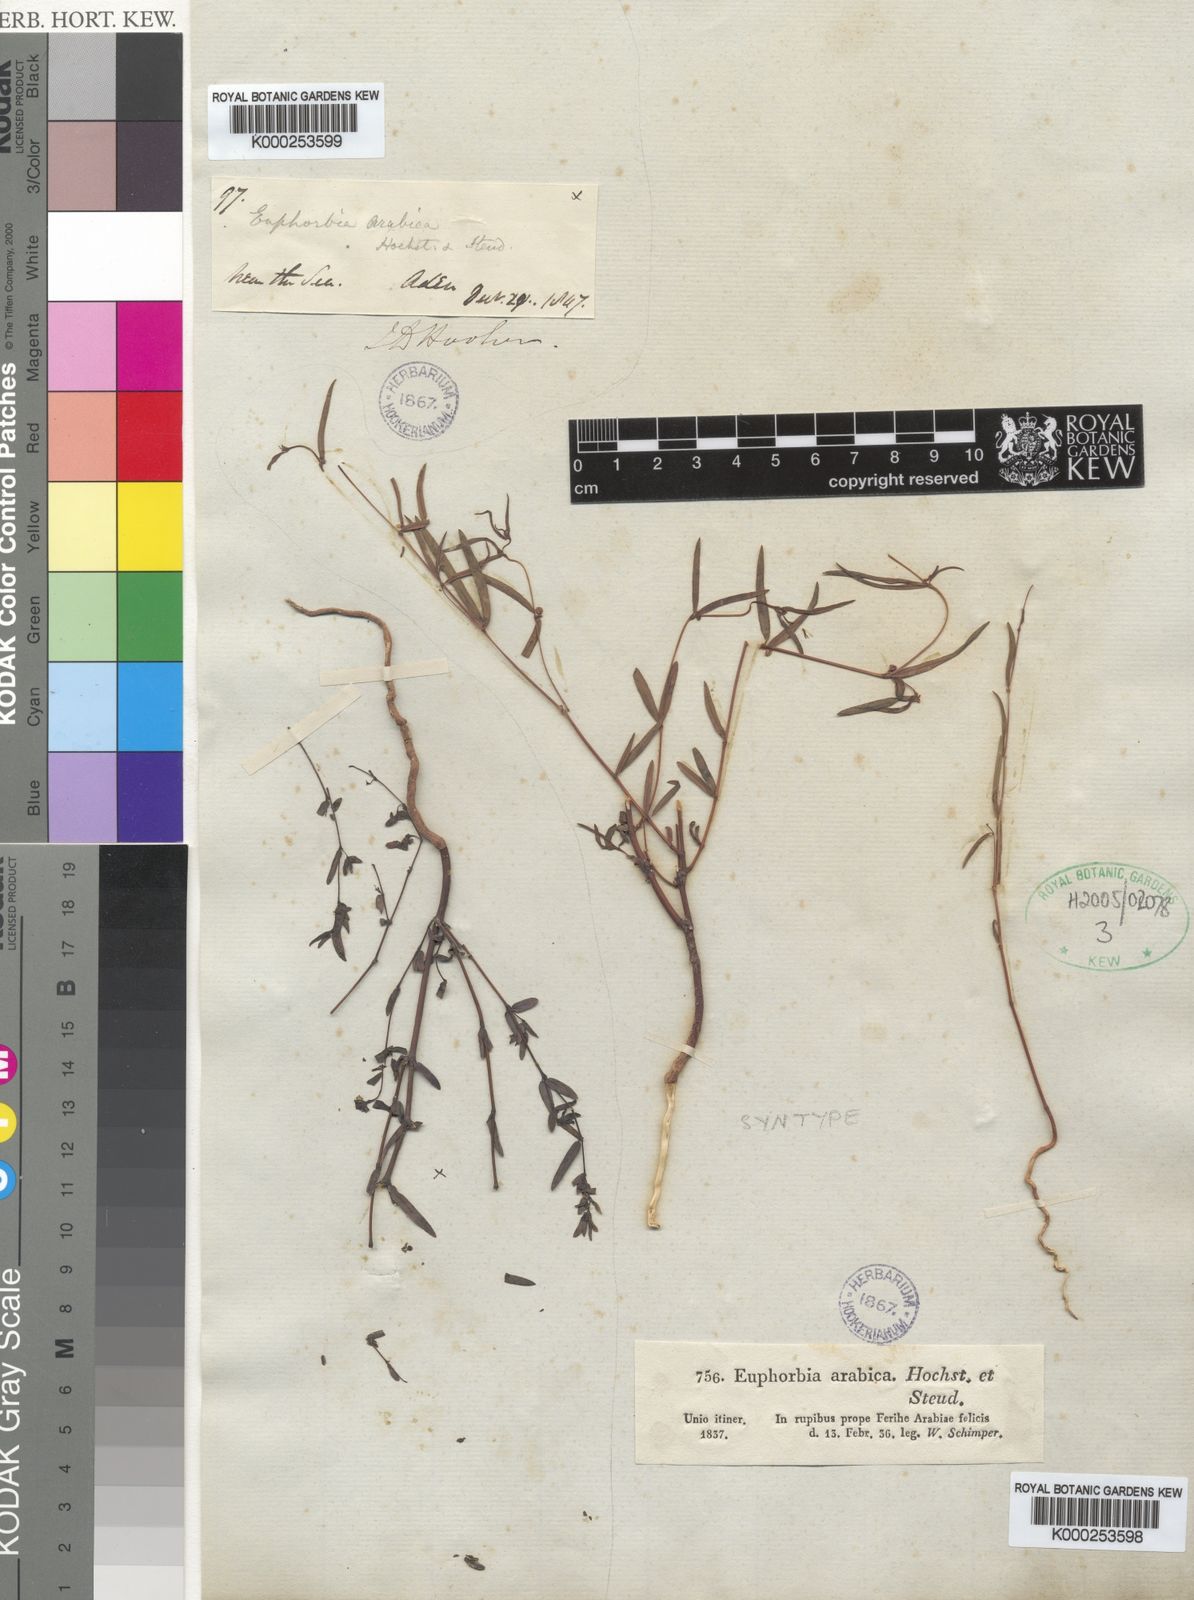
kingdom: Plantae
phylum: Tracheophyta
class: Magnoliopsida
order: Malpighiales
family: Euphorbiaceae
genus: Euphorbia
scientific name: Euphorbia arabica
